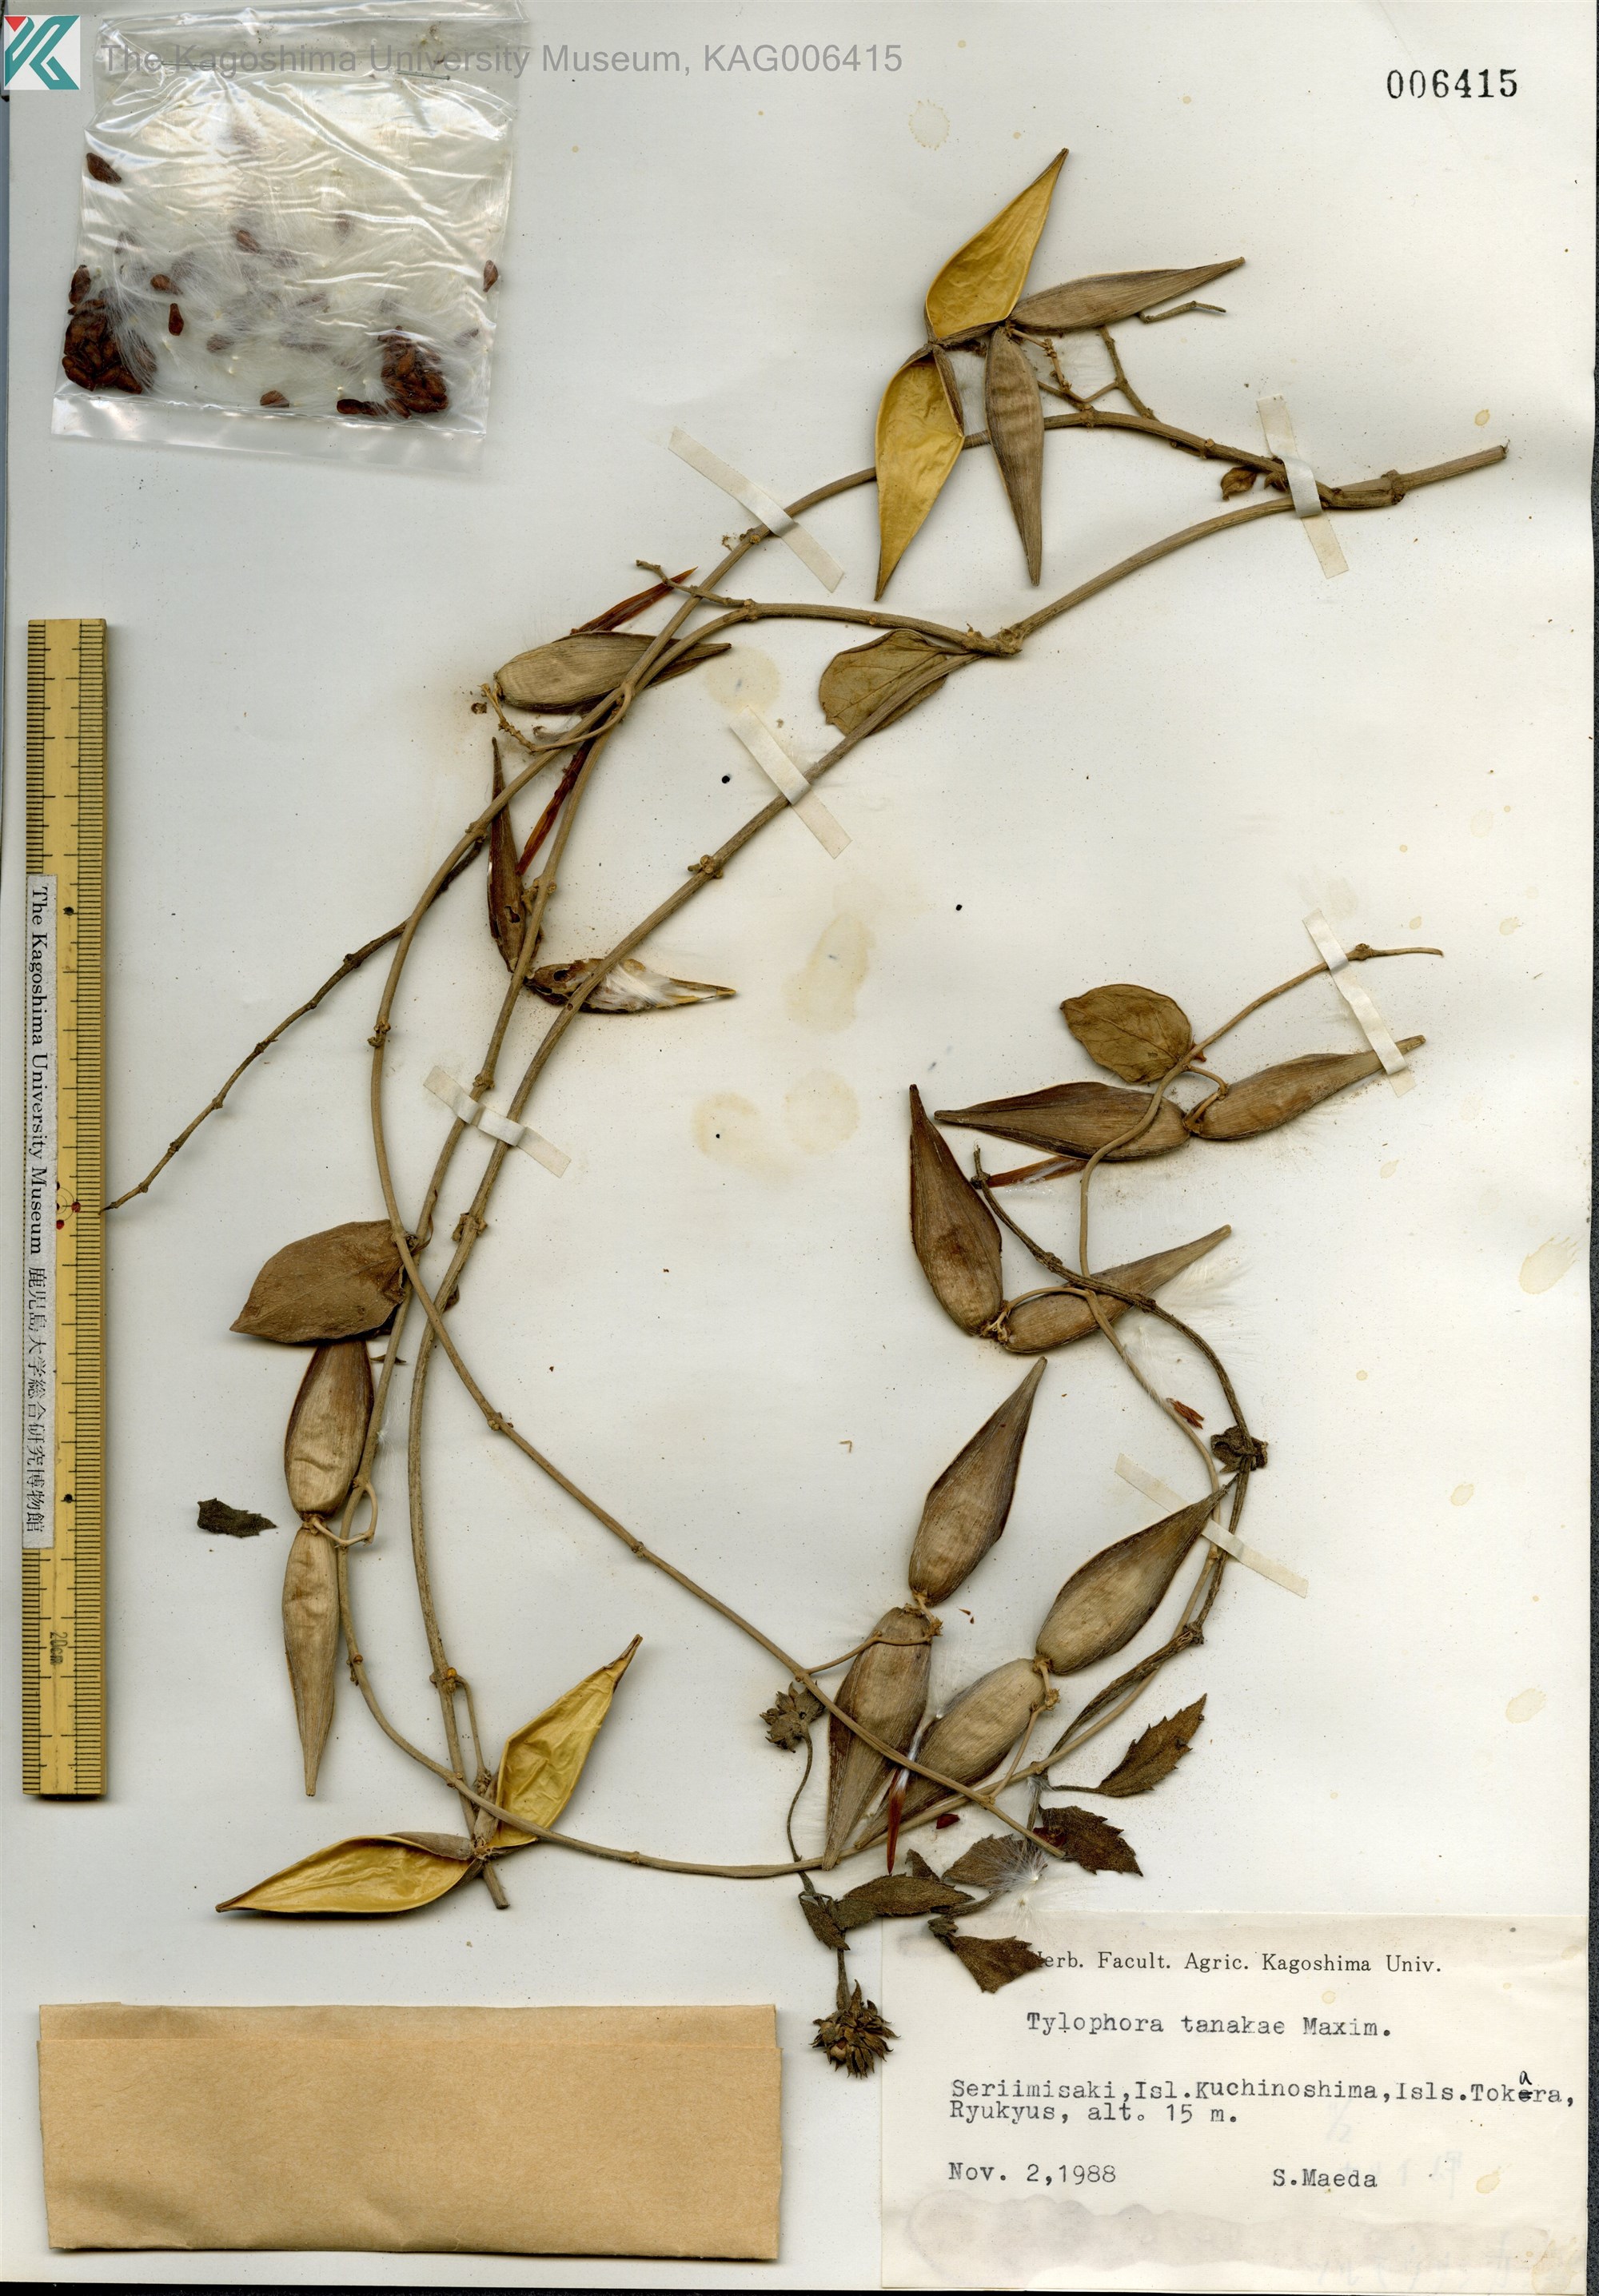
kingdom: Plantae
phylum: Tracheophyta
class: Magnoliopsida
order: Gentianales
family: Apocynaceae
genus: Vincetoxicum
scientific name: Vincetoxicum Tylophora tanakae
